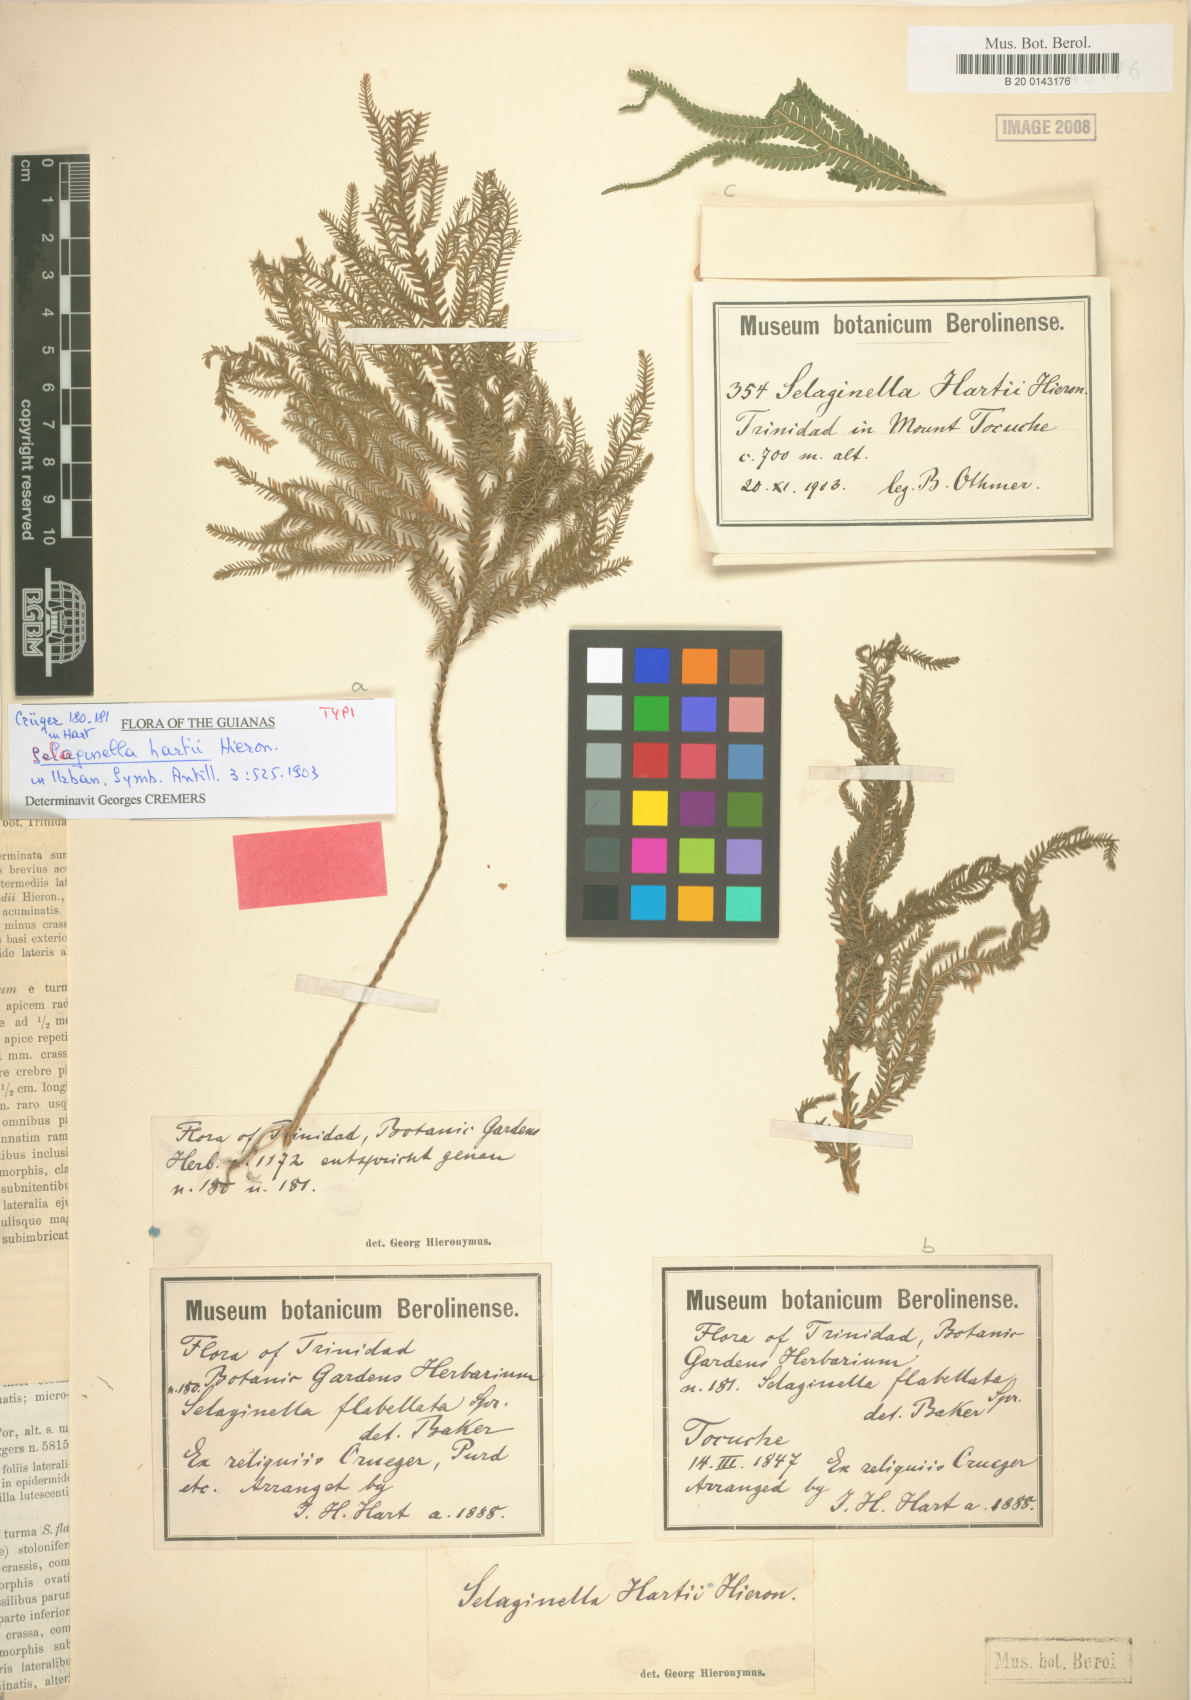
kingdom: Plantae
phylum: Tracheophyta
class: Lycopodiopsida
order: Selaginellales
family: Selaginellaceae
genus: Selaginella
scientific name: Selaginella hartii
